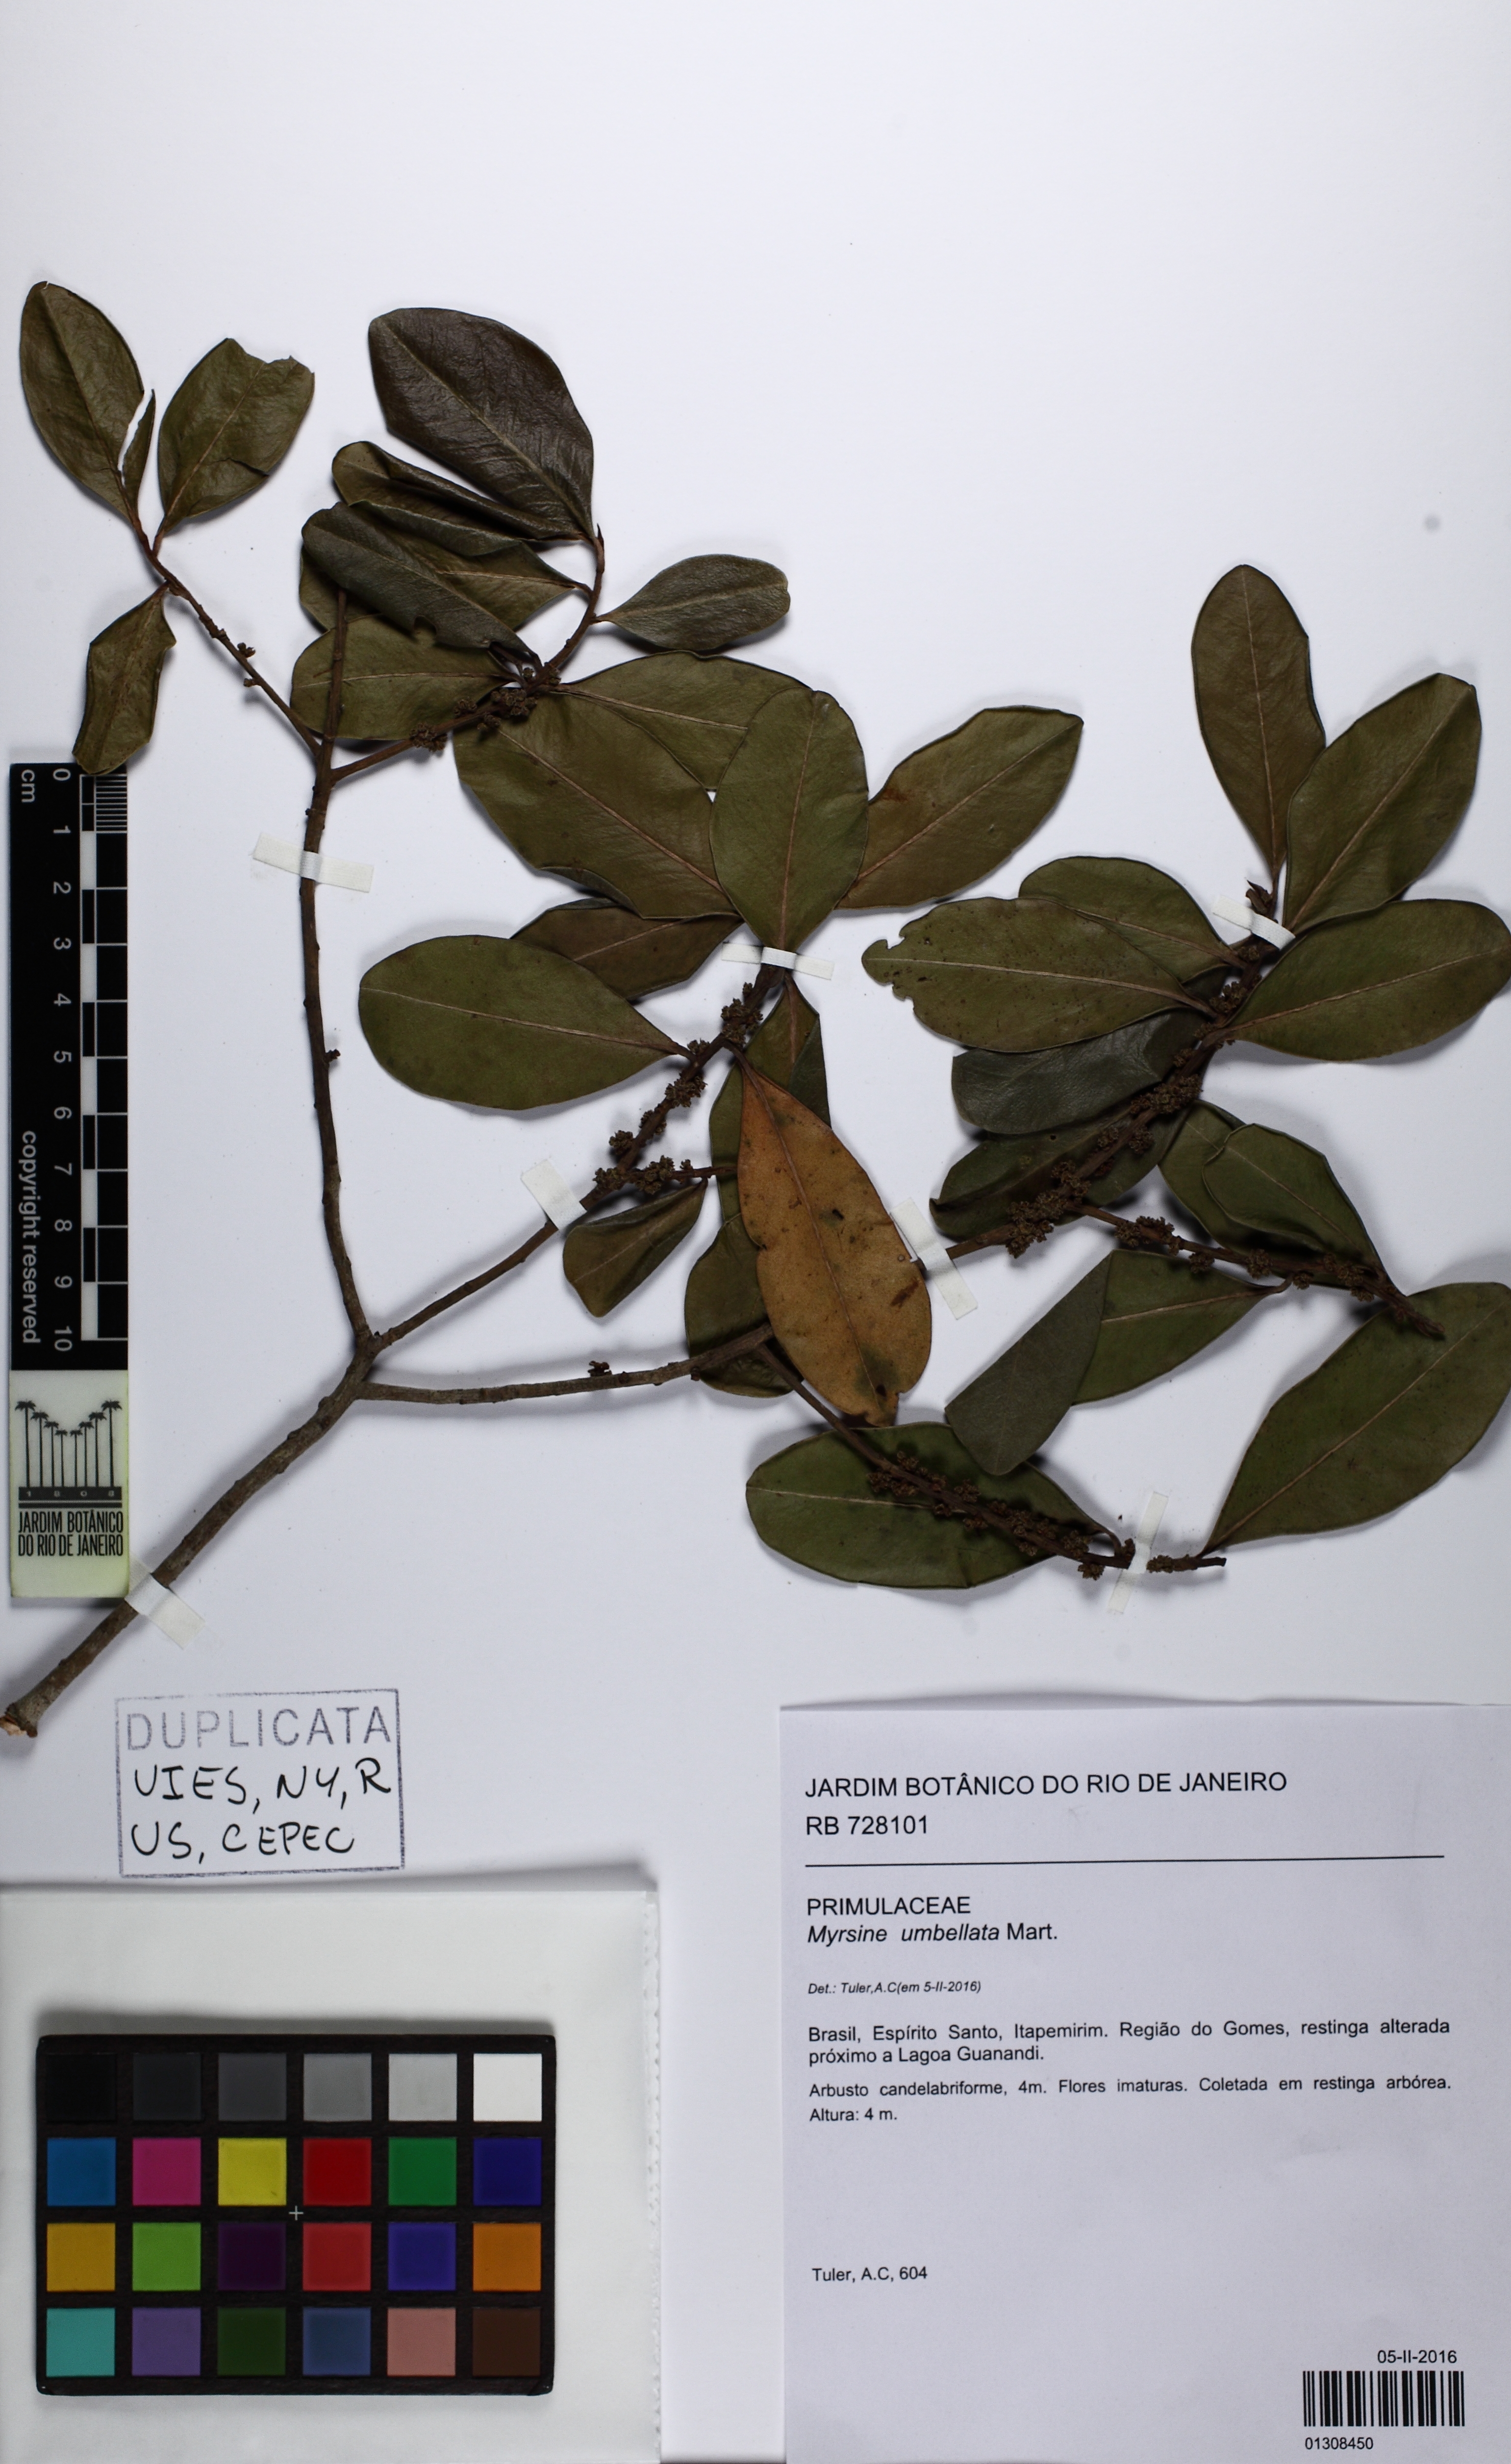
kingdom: Plantae
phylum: Tracheophyta
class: Magnoliopsida
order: Ericales
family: Primulaceae
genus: Myrsine
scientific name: Myrsine umbellata
